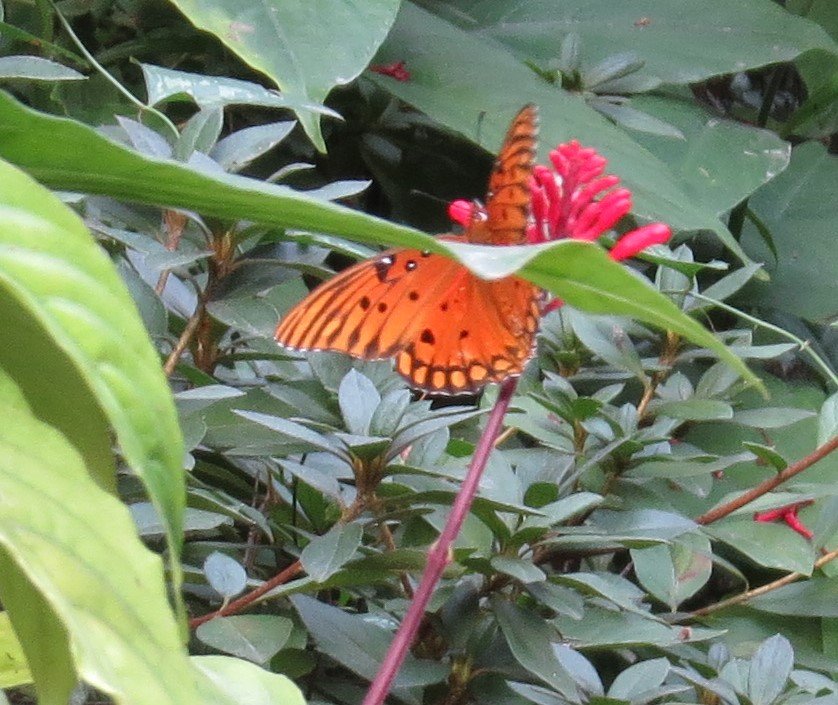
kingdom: Animalia
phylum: Arthropoda
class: Insecta
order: Lepidoptera
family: Nymphalidae
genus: Dione
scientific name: Dione vanillae
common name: Gulf Fritillary
